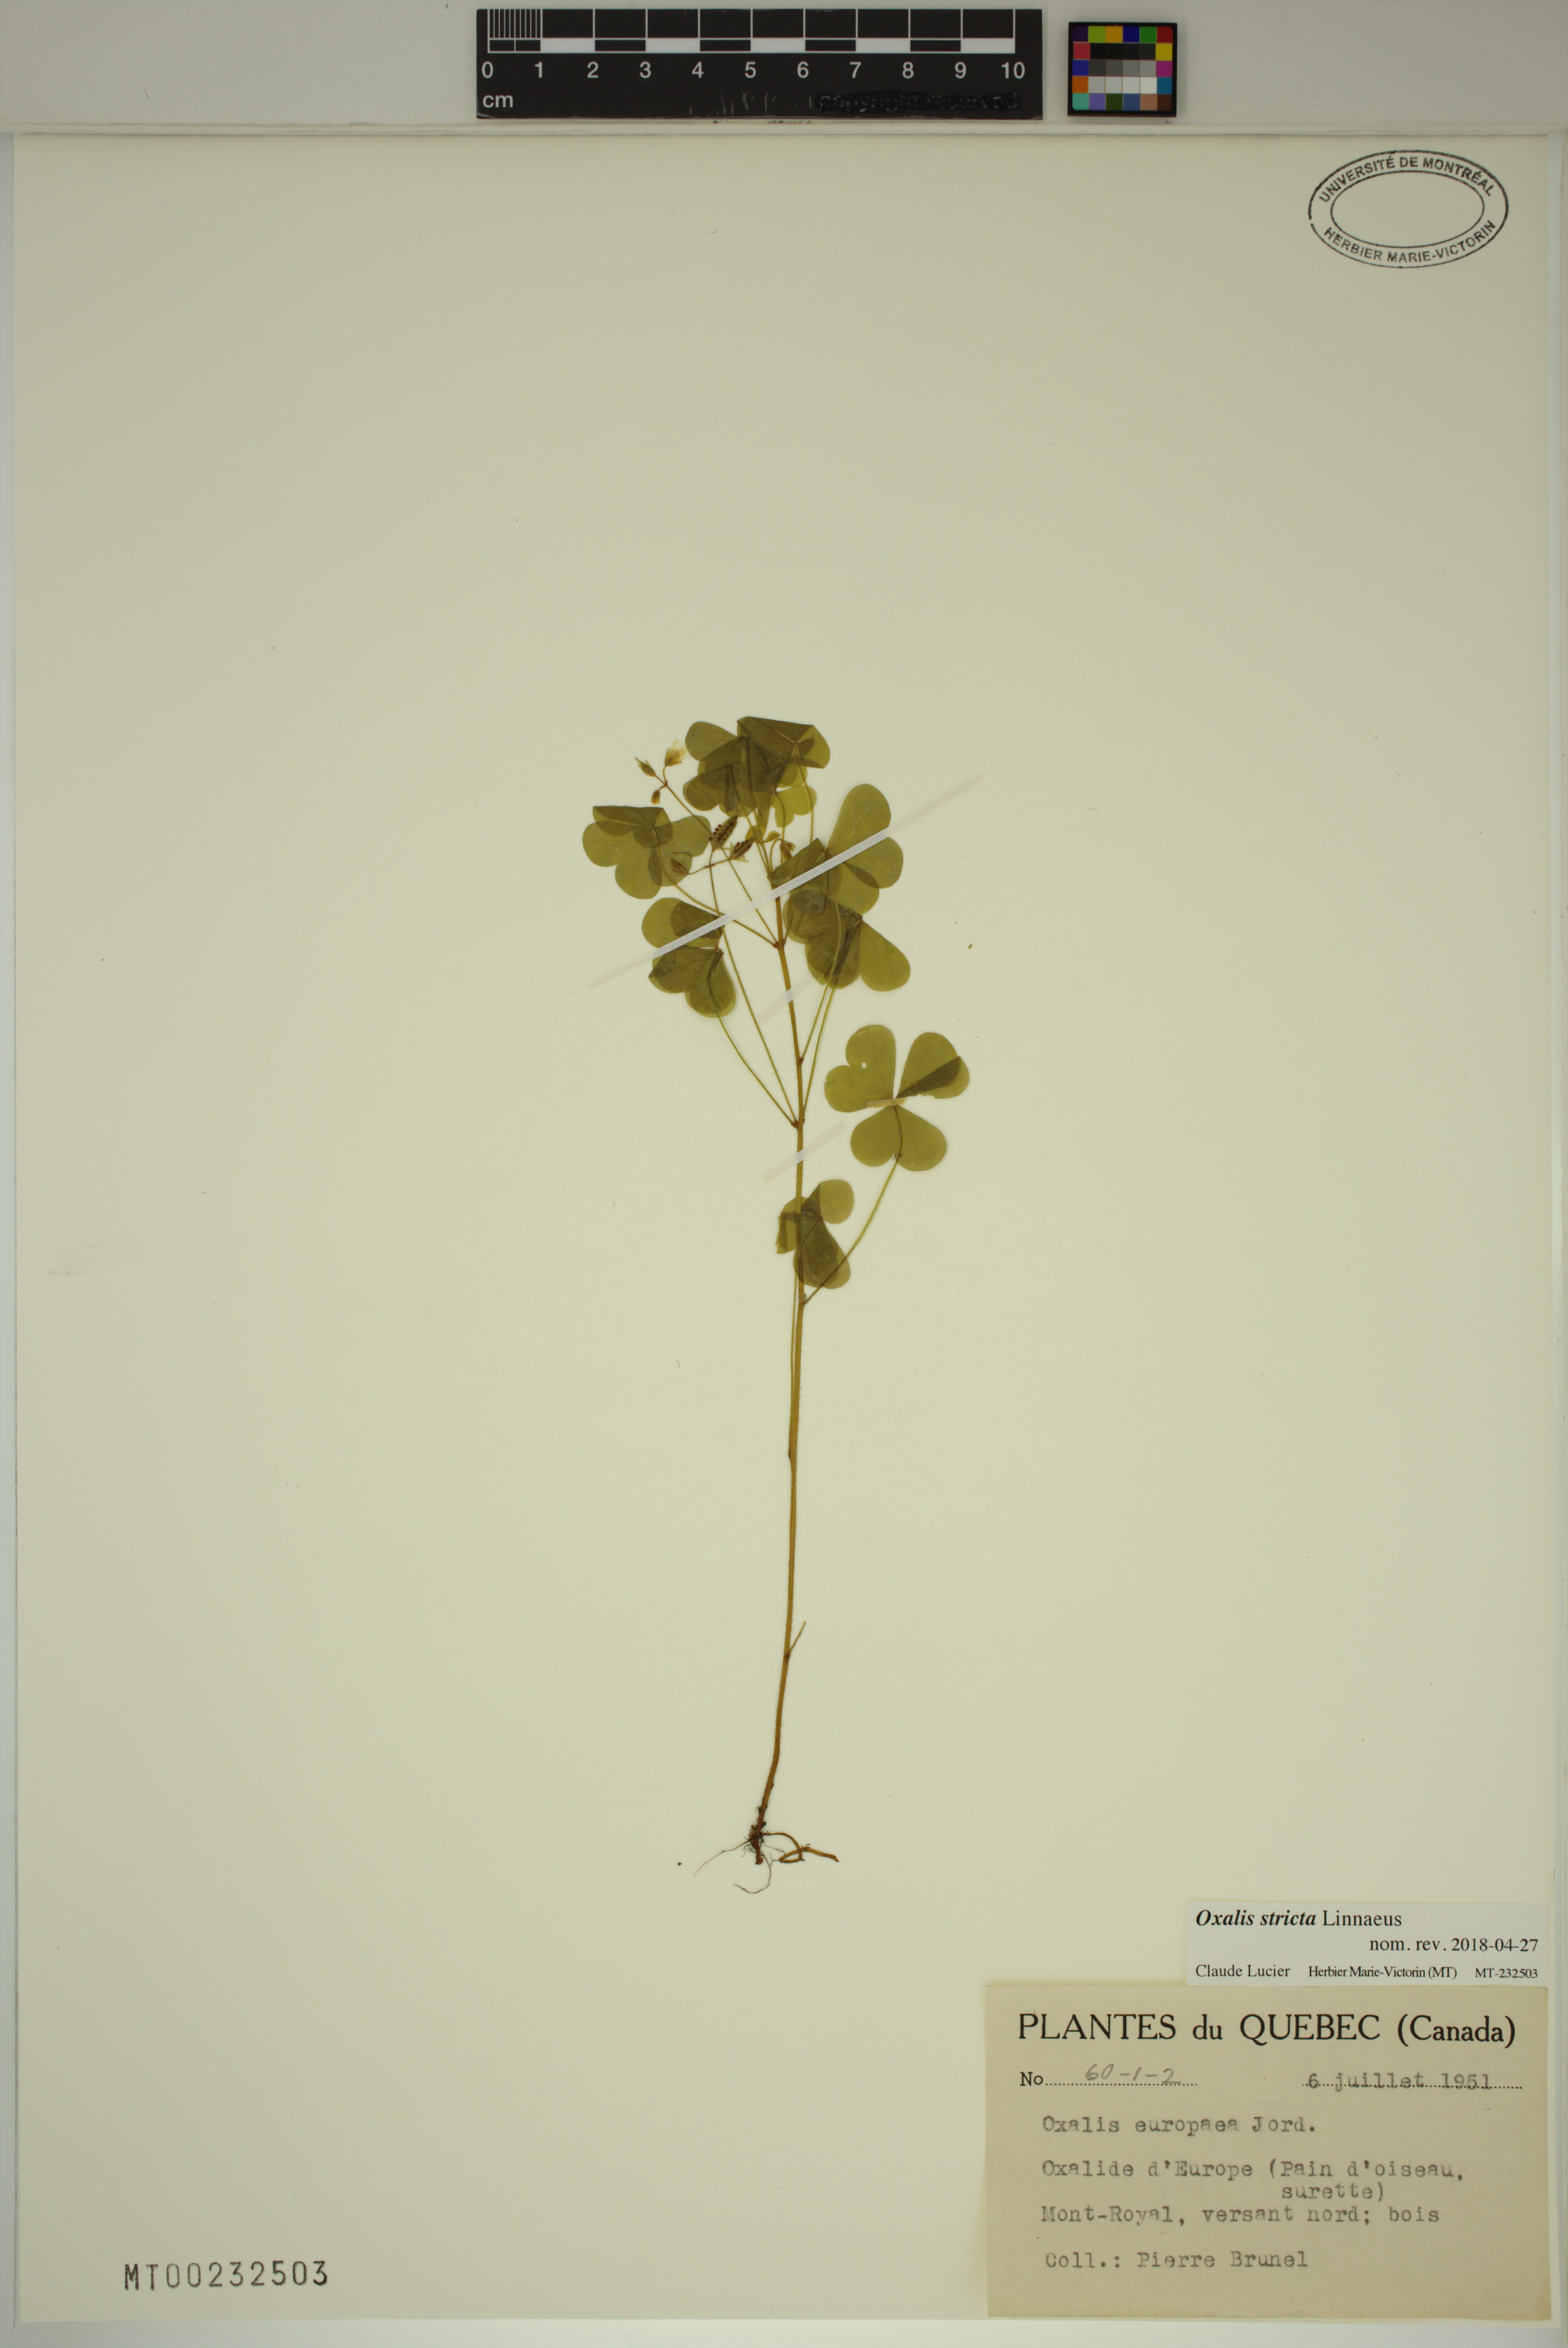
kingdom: Plantae
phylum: Tracheophyta
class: Magnoliopsida
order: Oxalidales
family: Oxalidaceae
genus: Oxalis
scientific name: Oxalis stricta
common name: Upright yellow-sorrel
